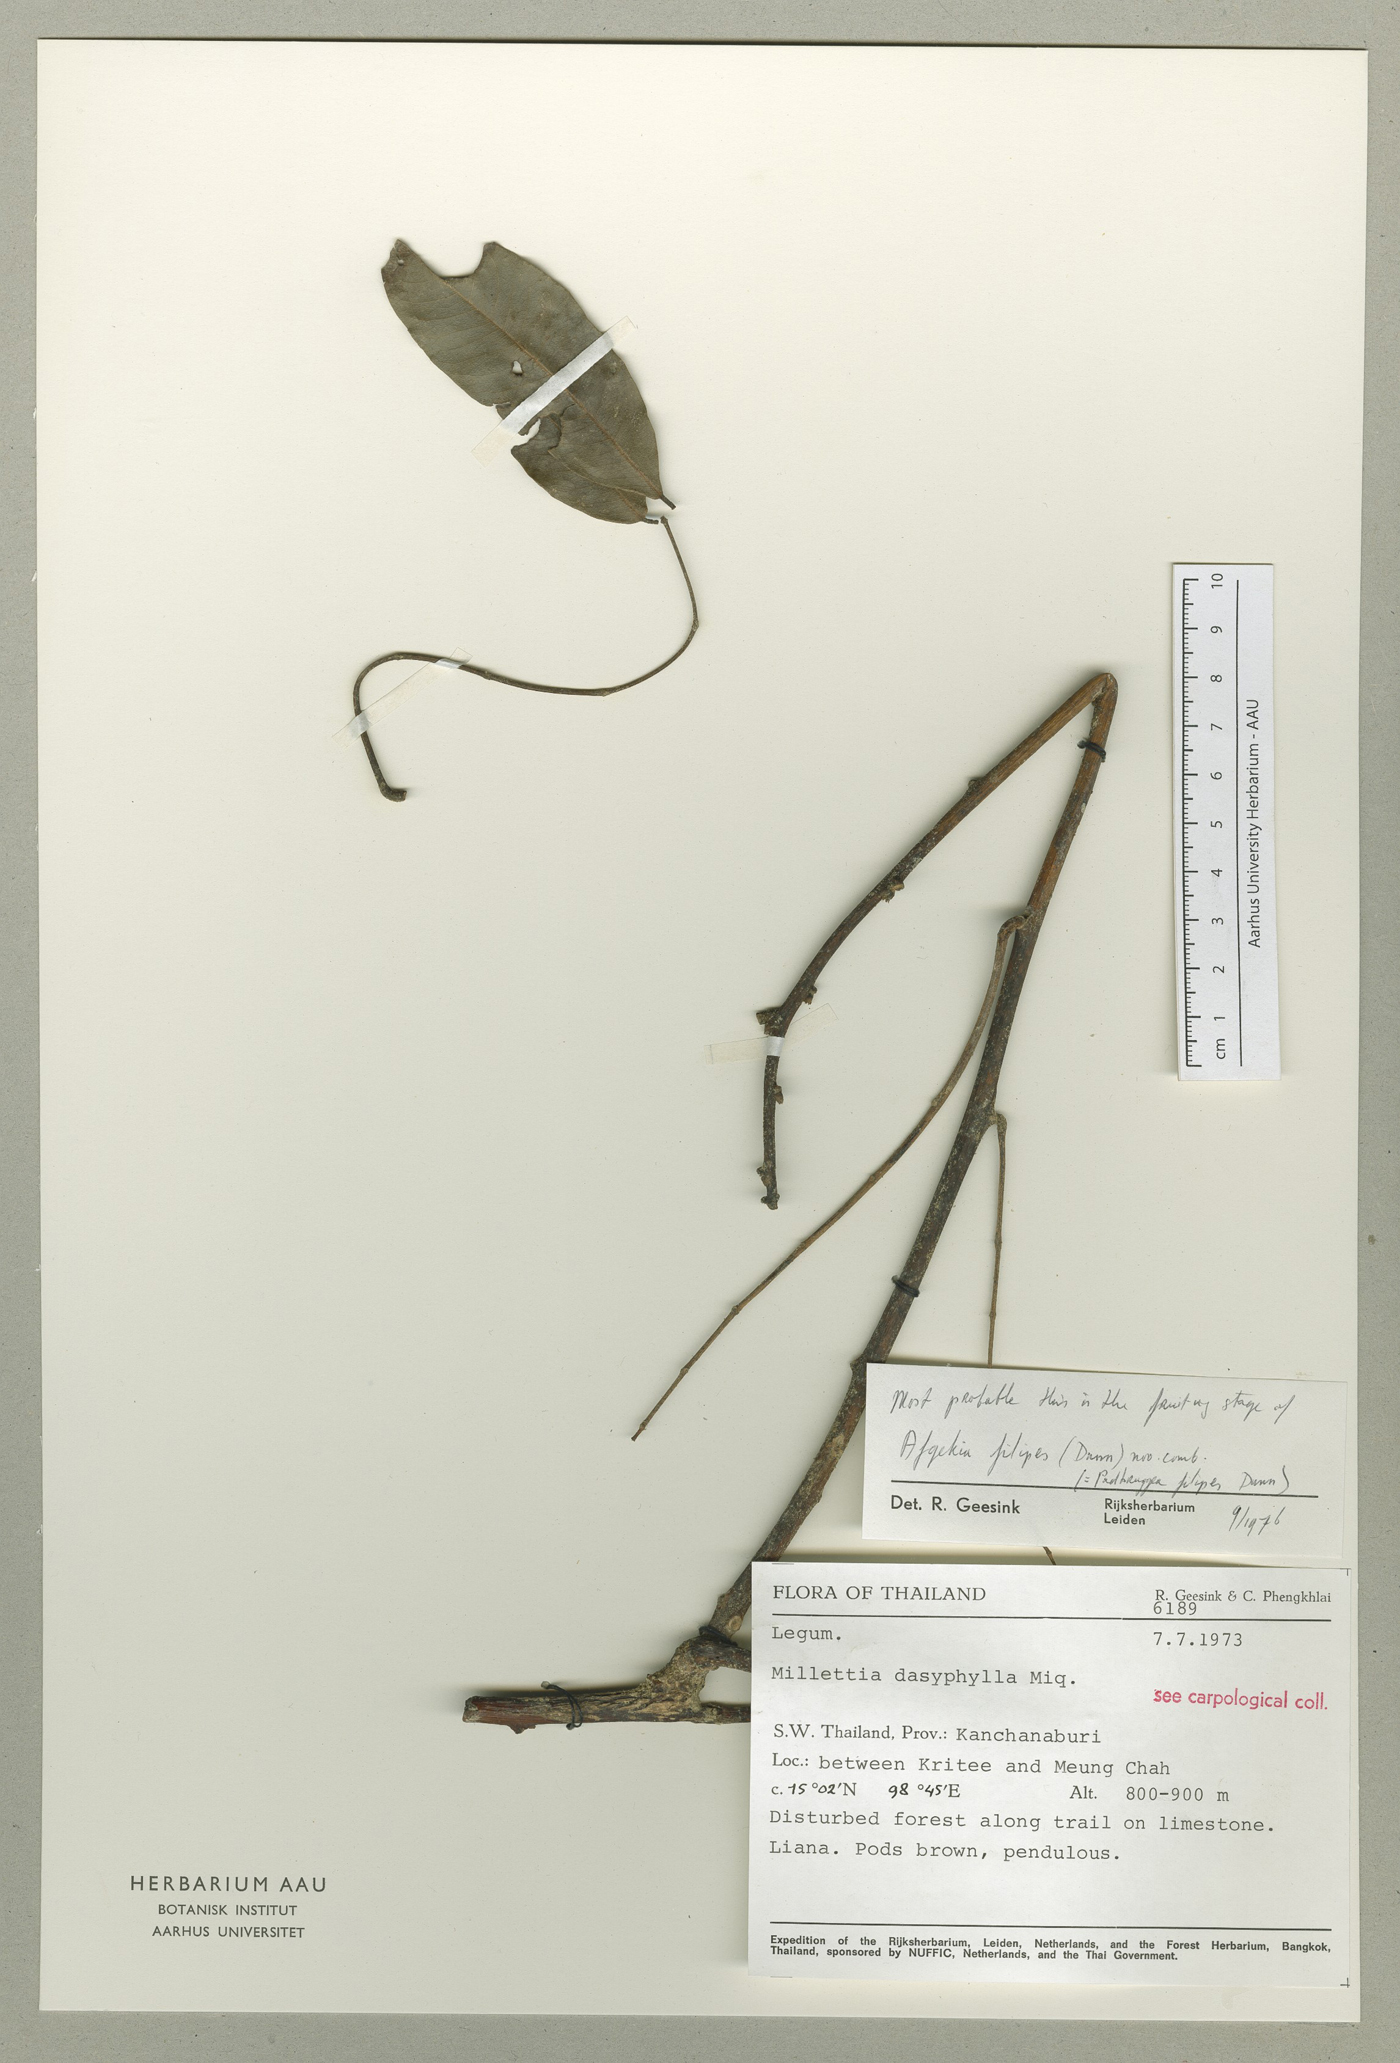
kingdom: Plantae
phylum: Tracheophyta
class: Magnoliopsida
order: Fabales
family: Fabaceae
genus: Padbruggea
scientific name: Padbruggea filipes
